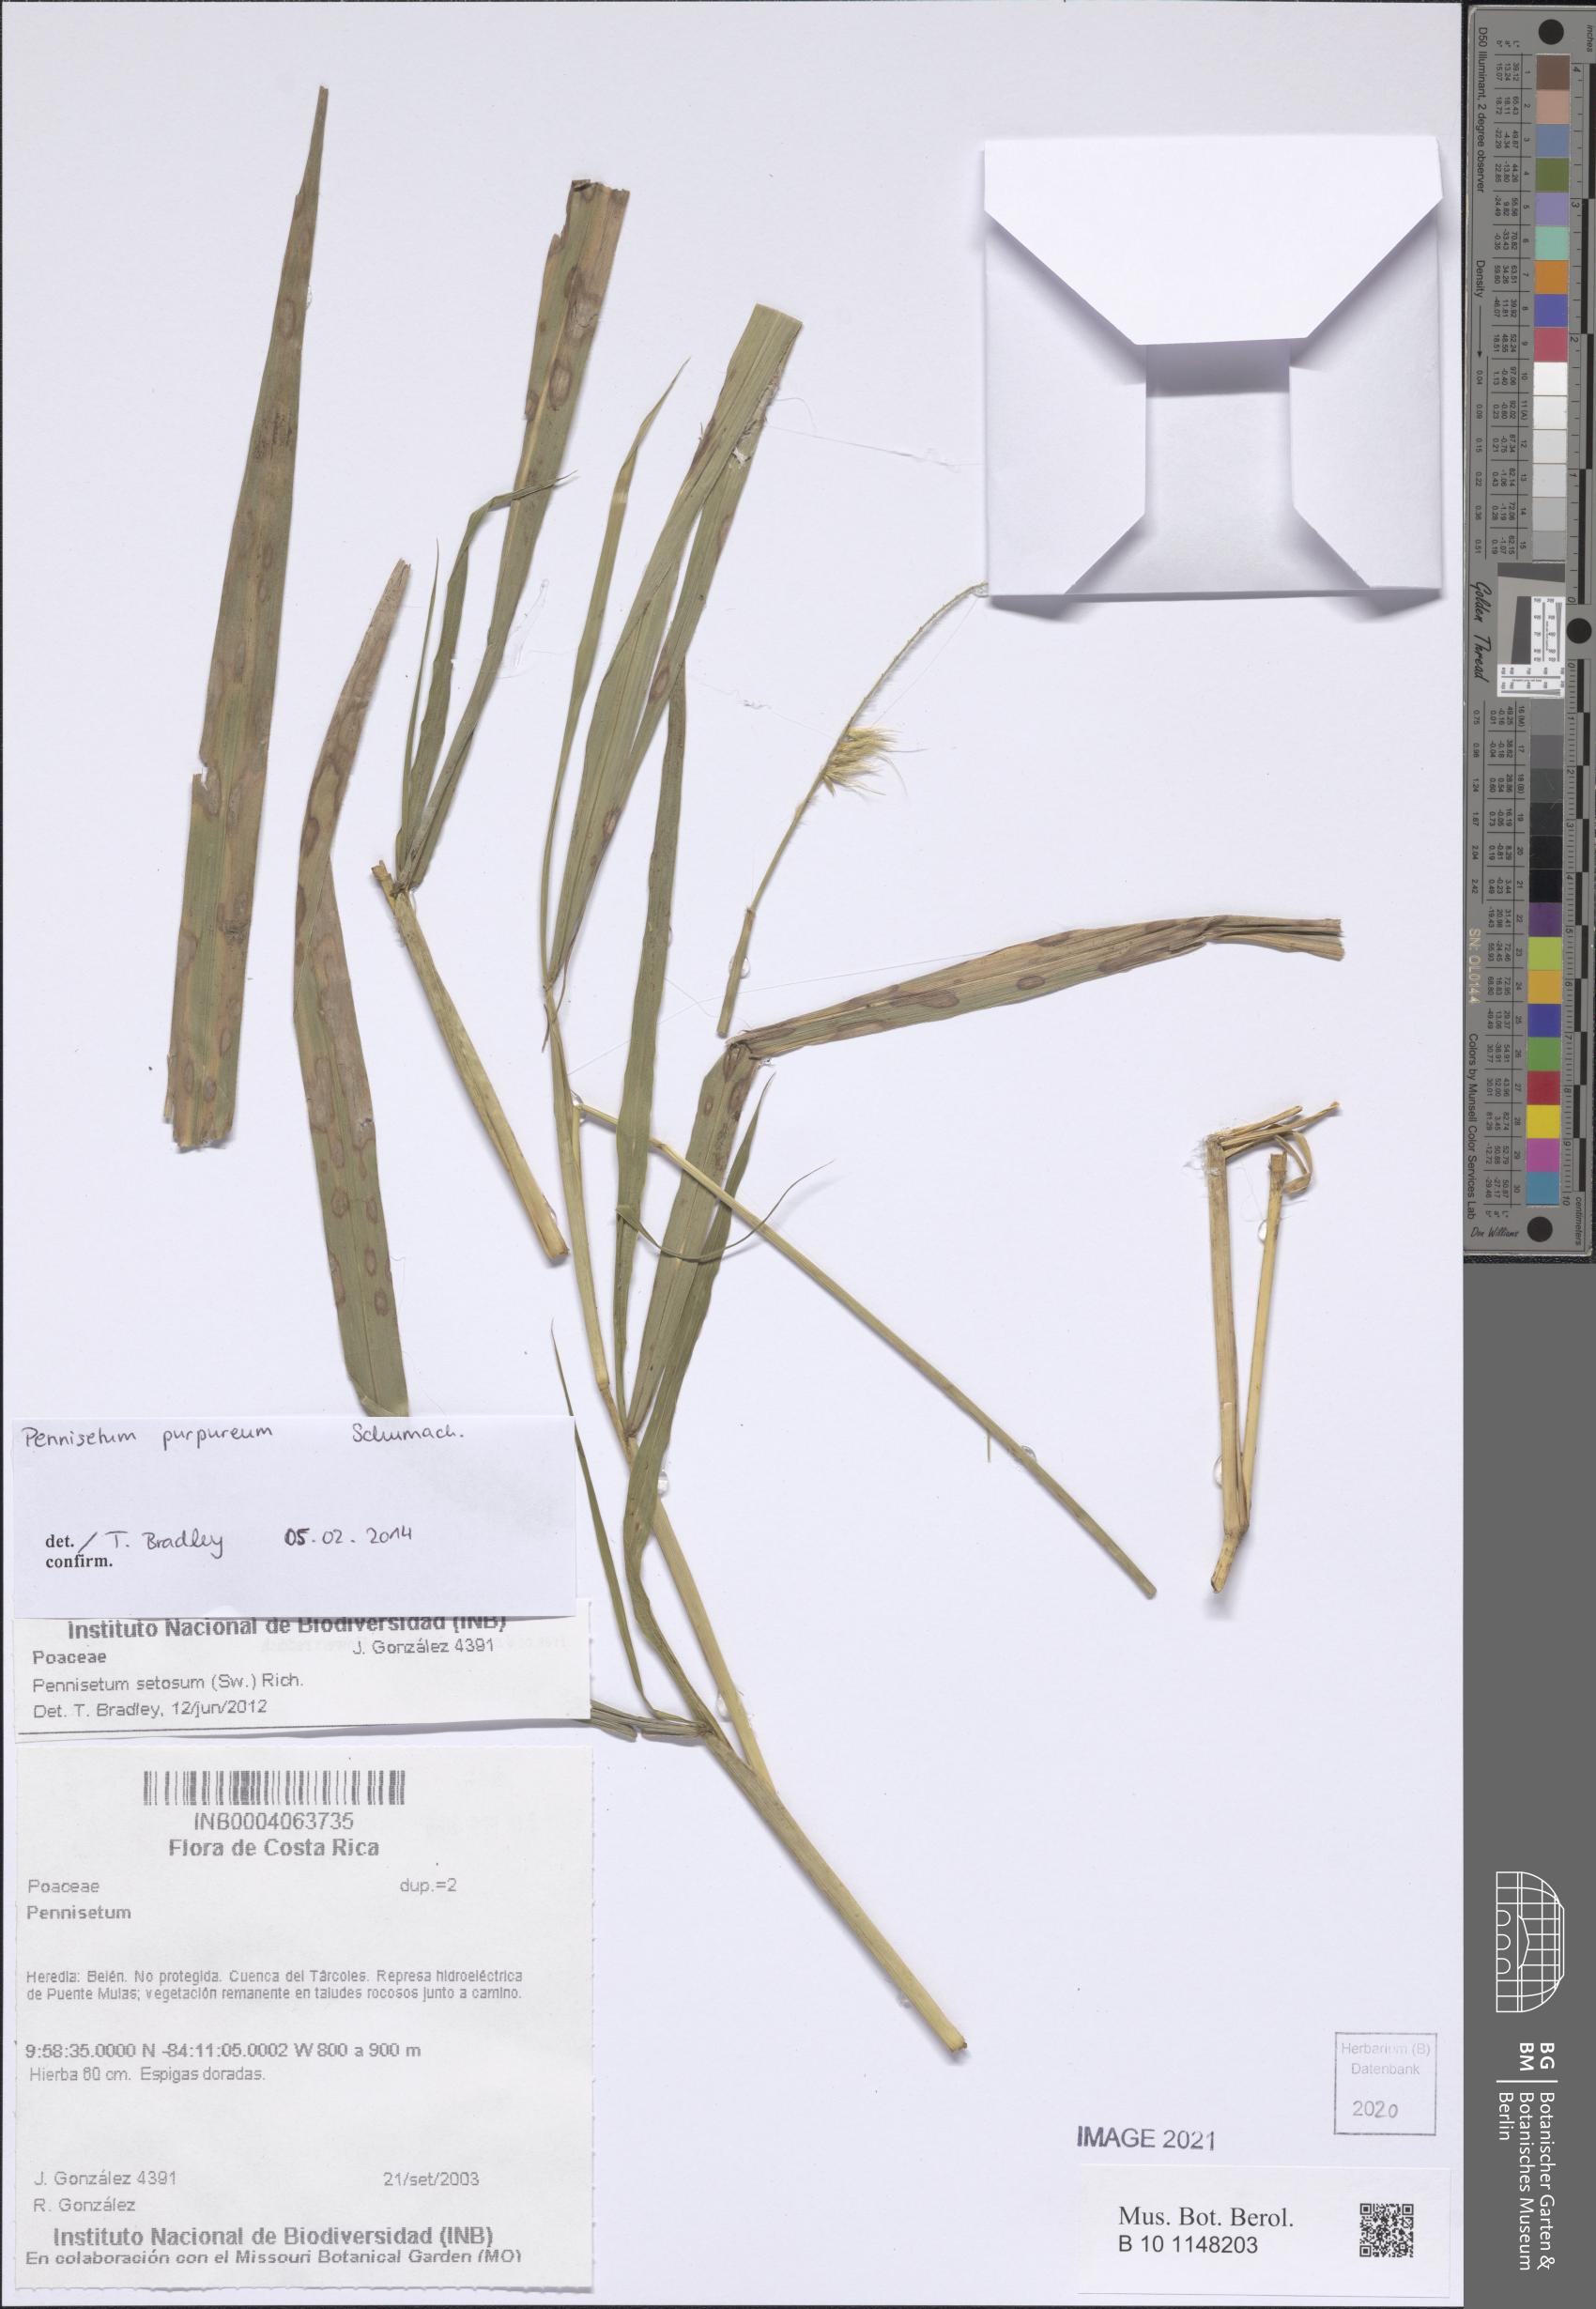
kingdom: Plantae
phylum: Tracheophyta
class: Liliopsida
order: Poales
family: Poaceae
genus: Cenchrus
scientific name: Cenchrus purpureus
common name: Elephant grass
